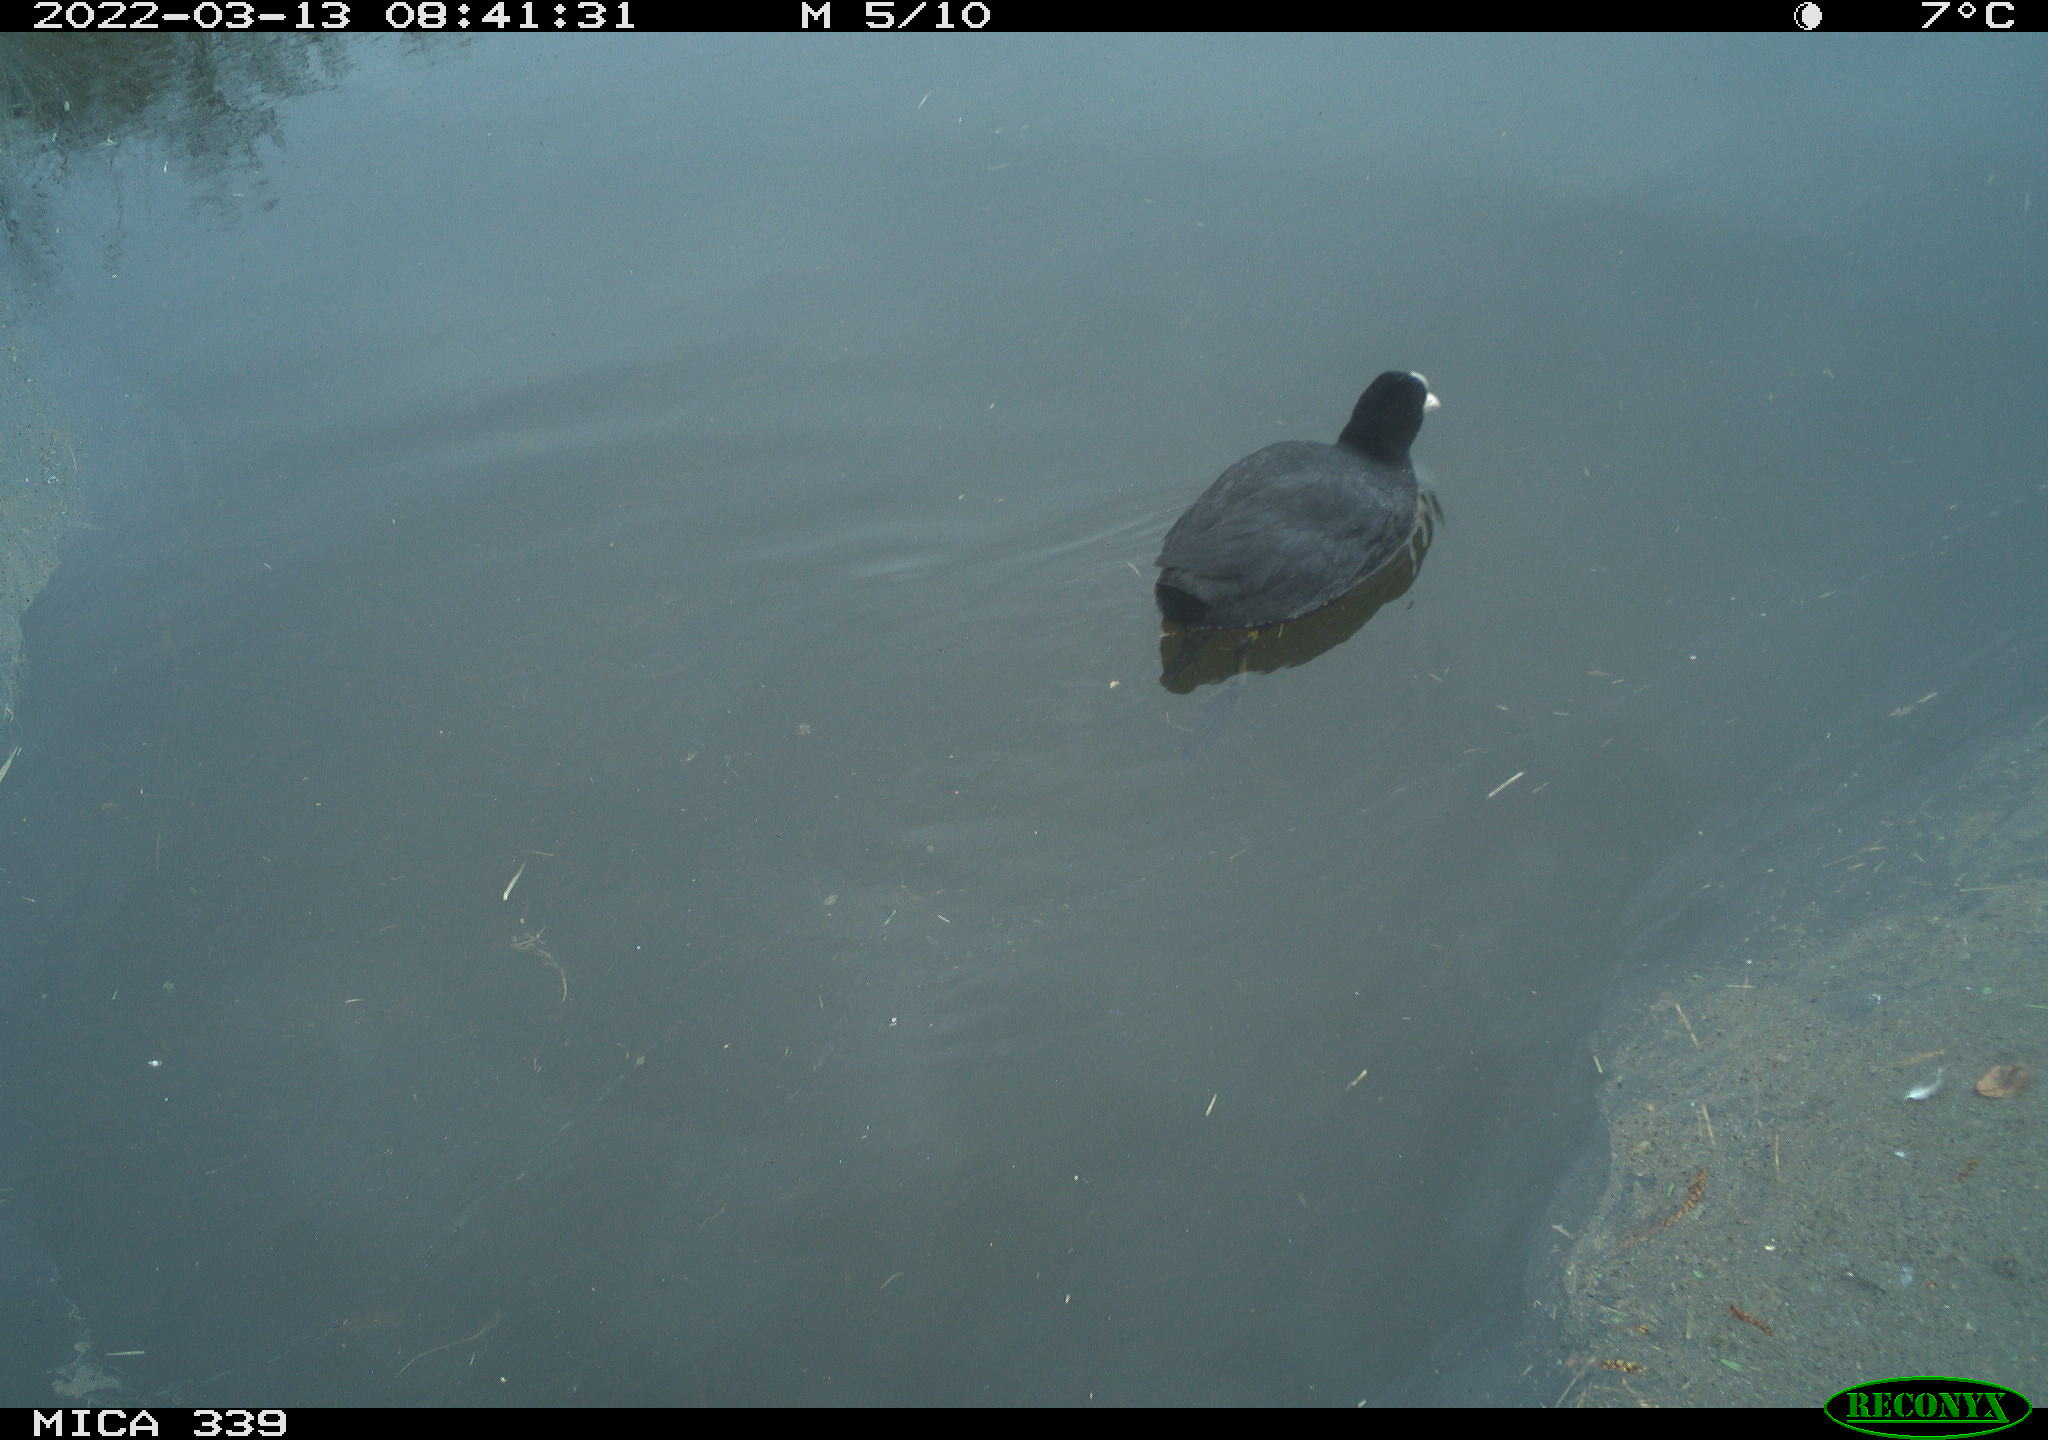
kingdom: Animalia
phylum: Chordata
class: Aves
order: Gruiformes
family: Rallidae
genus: Fulica
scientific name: Fulica atra
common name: Eurasian coot
